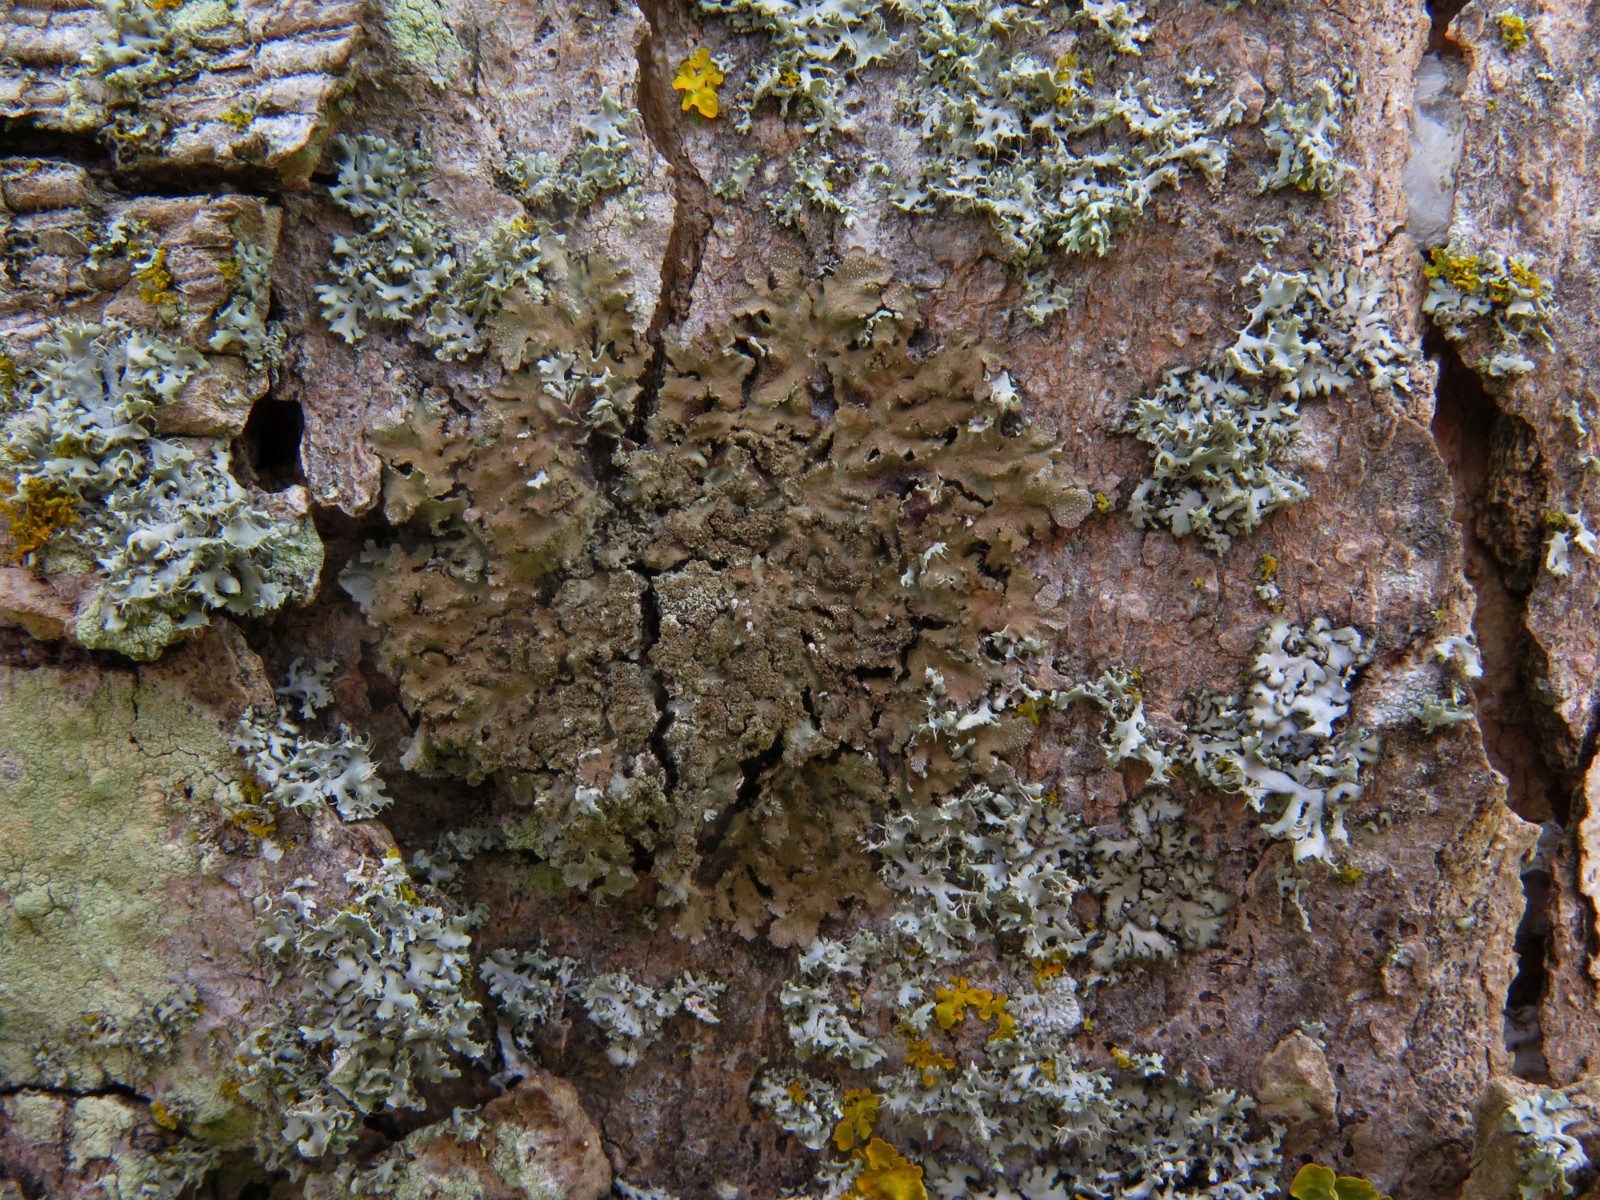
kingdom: Fungi
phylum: Ascomycota
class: Lecanoromycetes
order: Lecanorales
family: Parmeliaceae
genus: Melanelixia
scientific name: Melanelixia subaurifera
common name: guldpudret skållav
